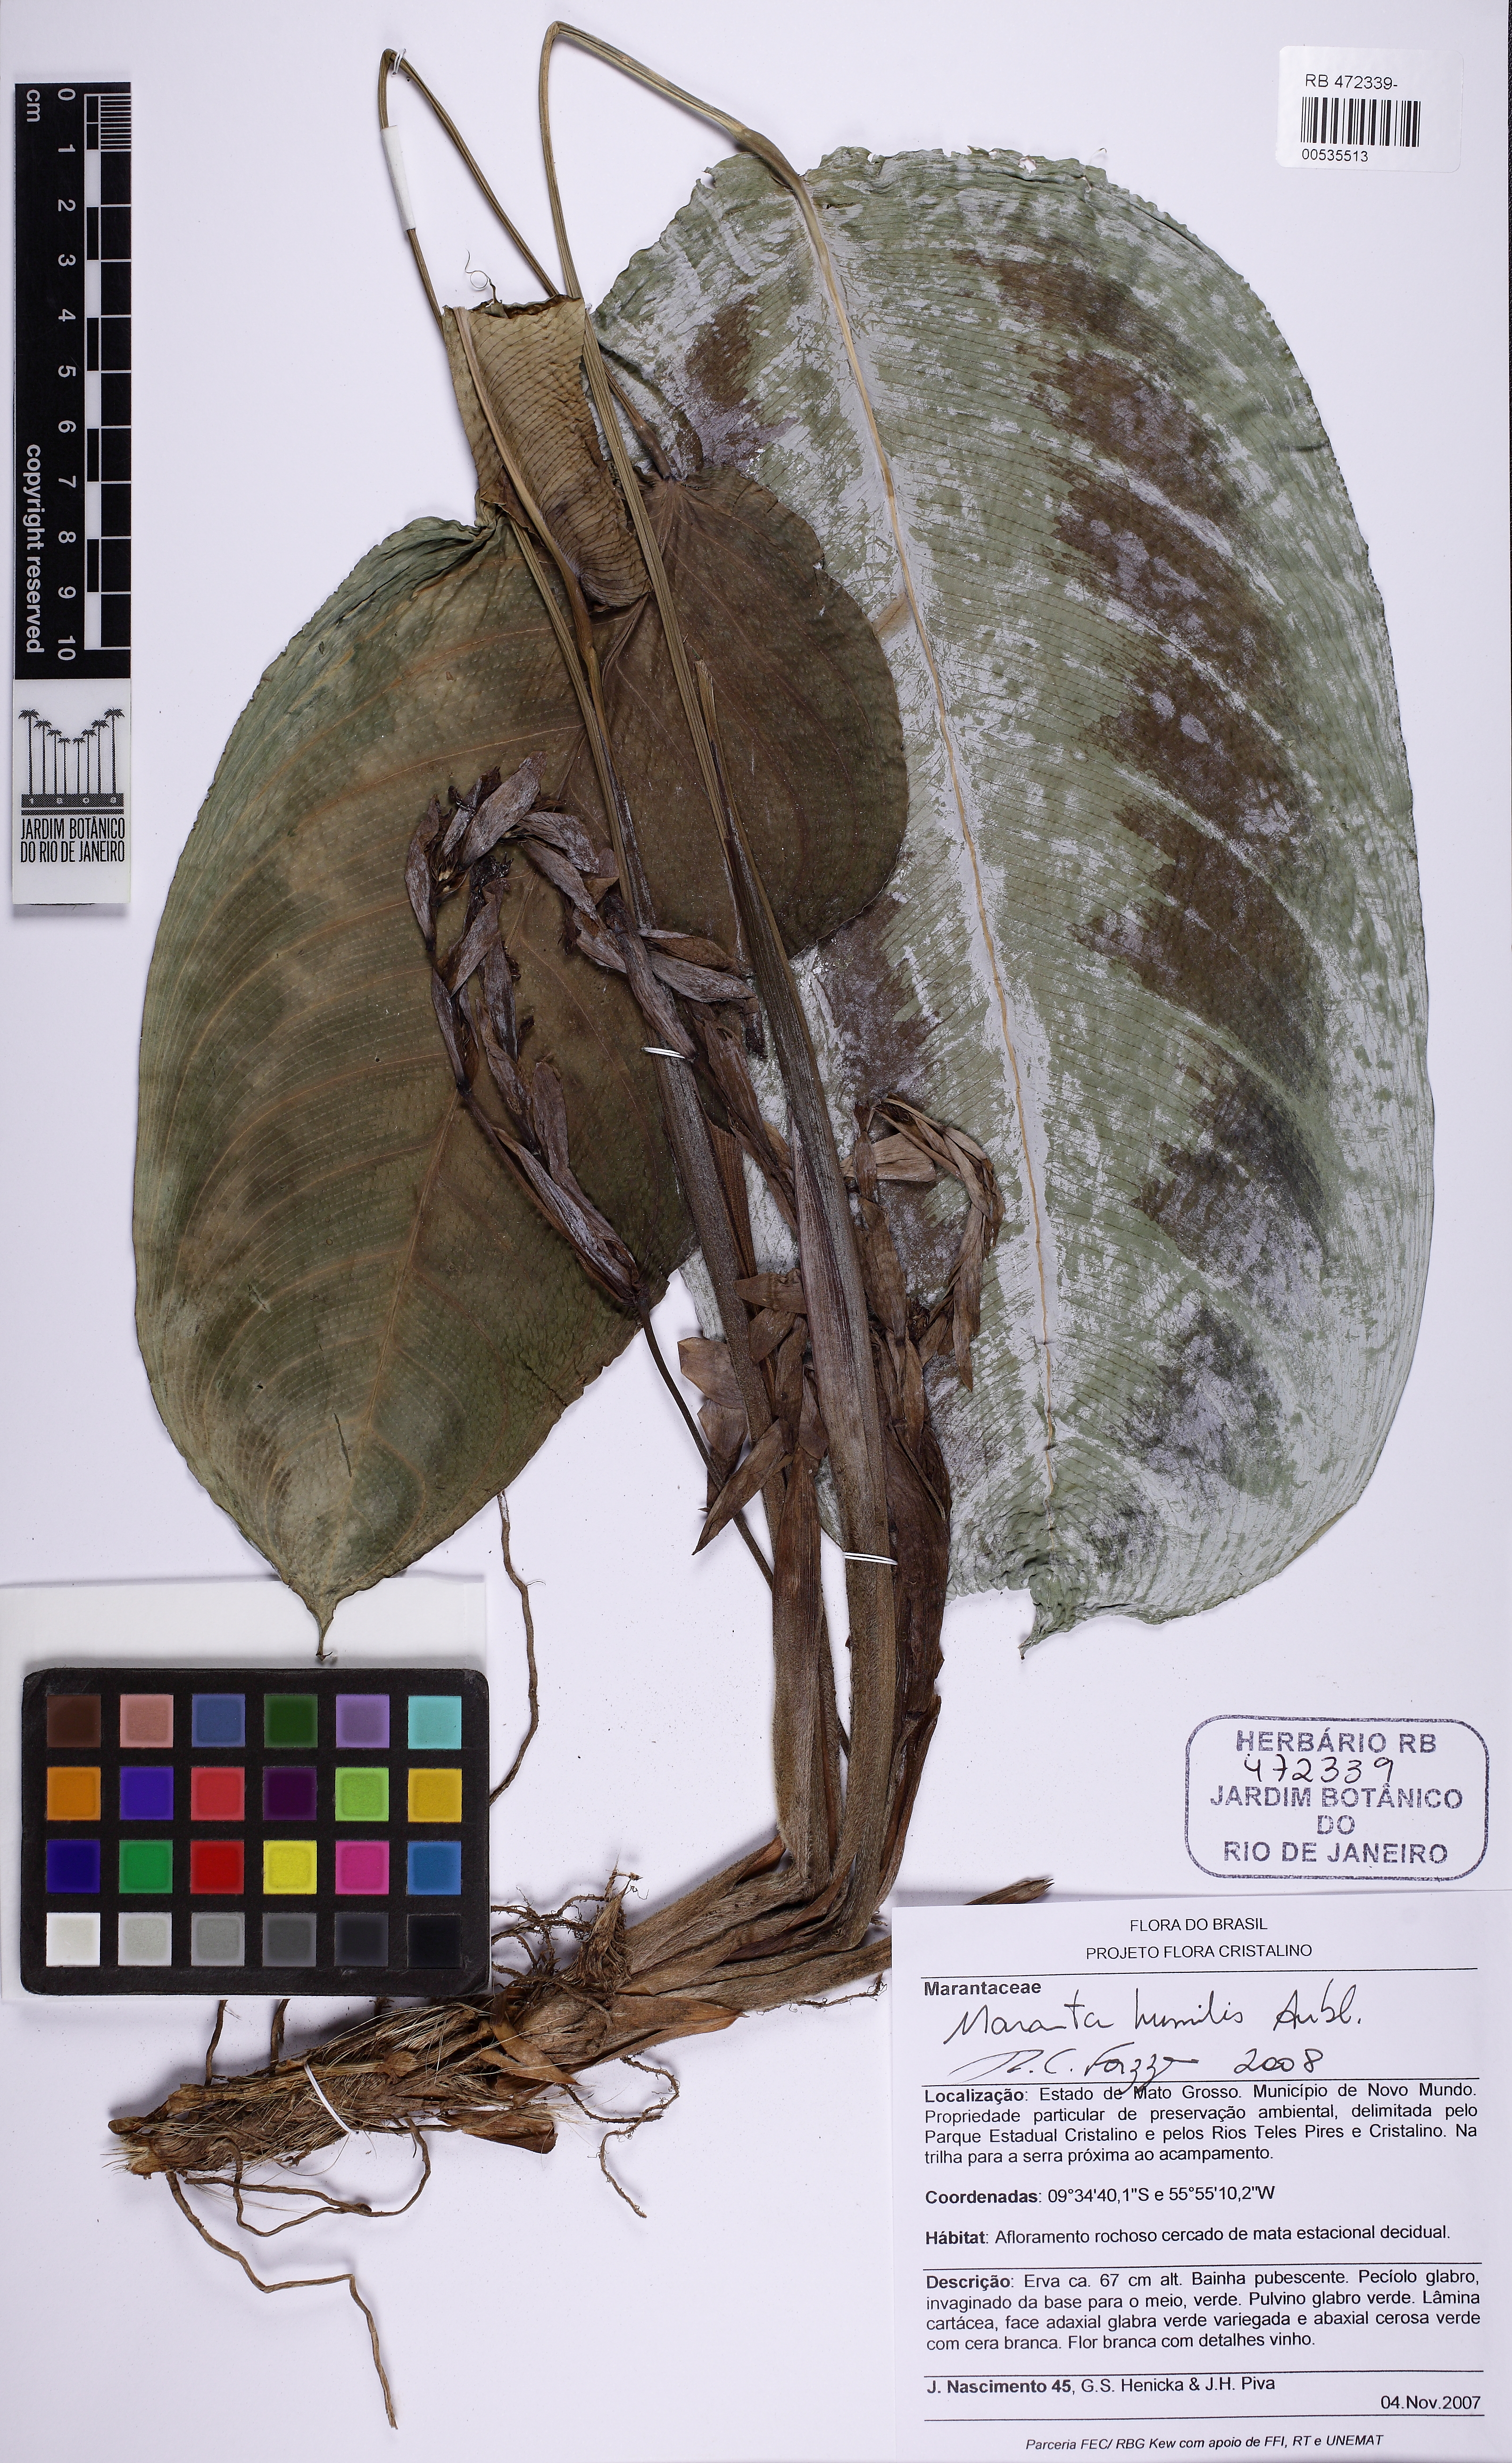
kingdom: Plantae
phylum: Tracheophyta
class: Liliopsida
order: Zingiberales
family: Marantaceae
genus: Maranta
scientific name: Maranta humilis
